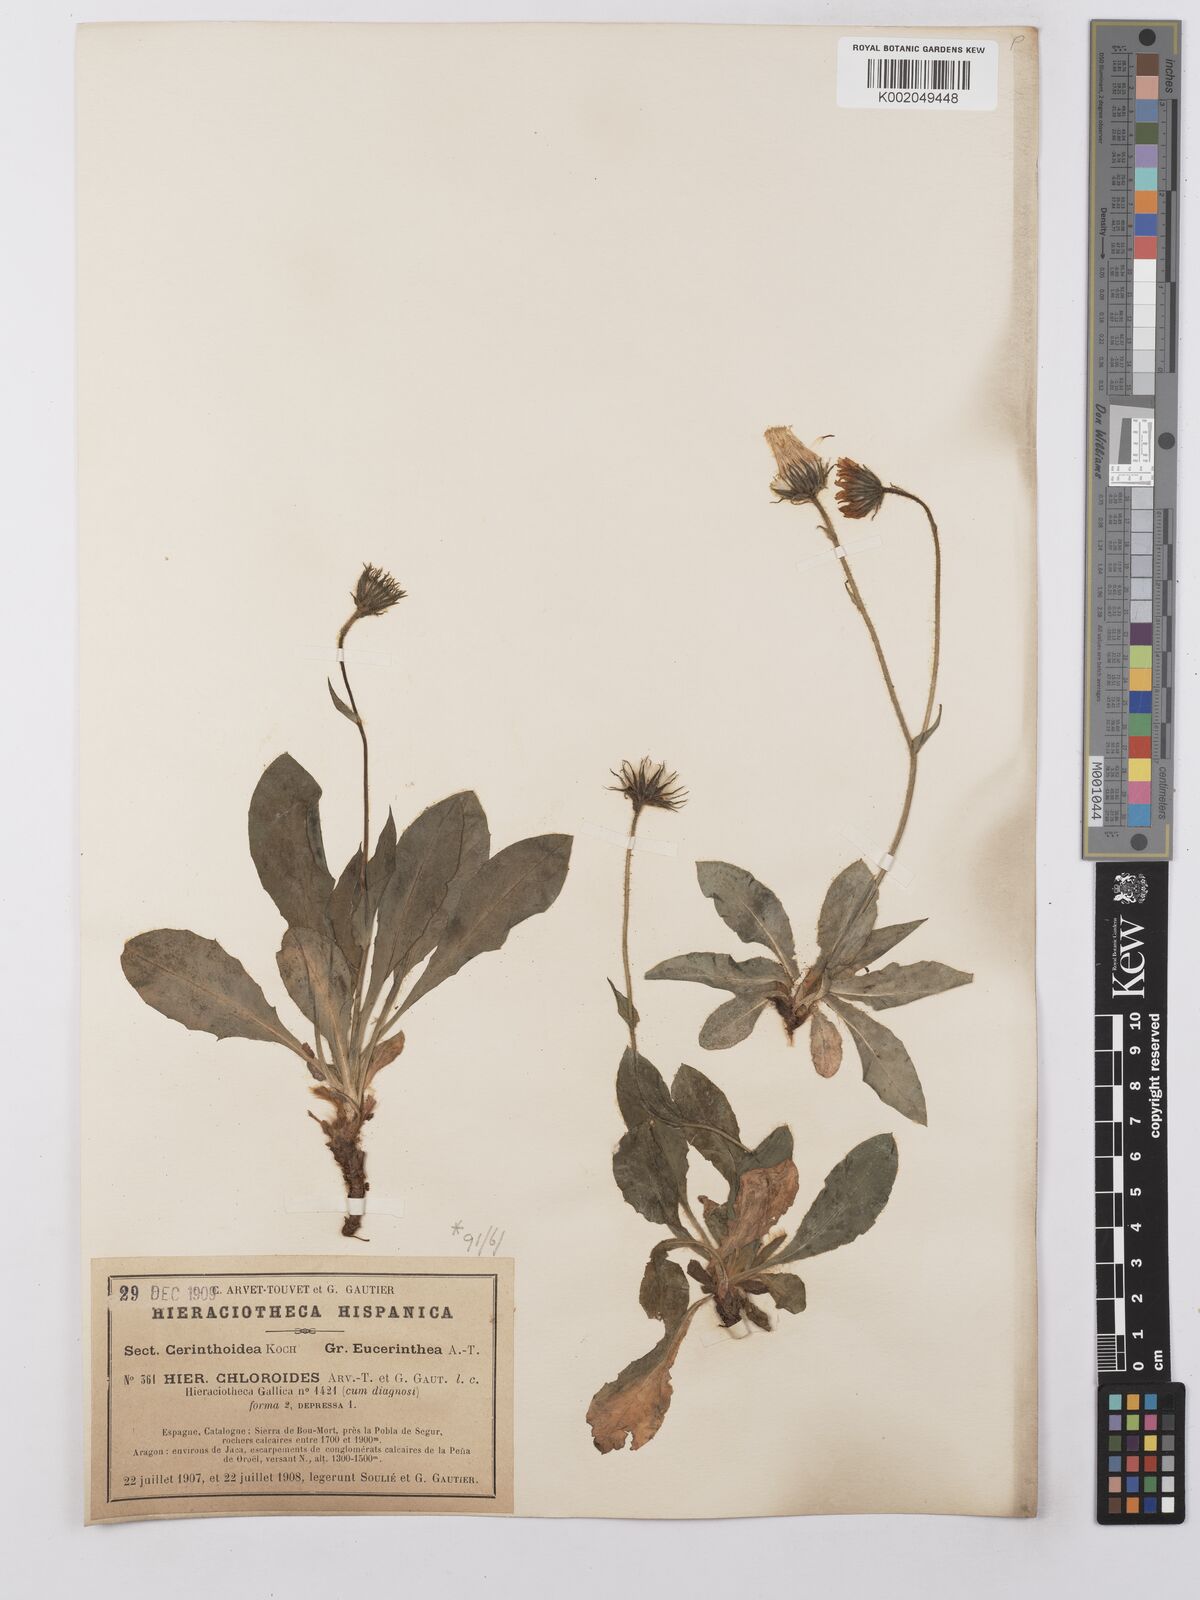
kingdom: Plantae
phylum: Tracheophyta
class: Magnoliopsida
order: Asterales
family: Asteraceae
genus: Hieracium
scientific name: Hieracium ramondii
